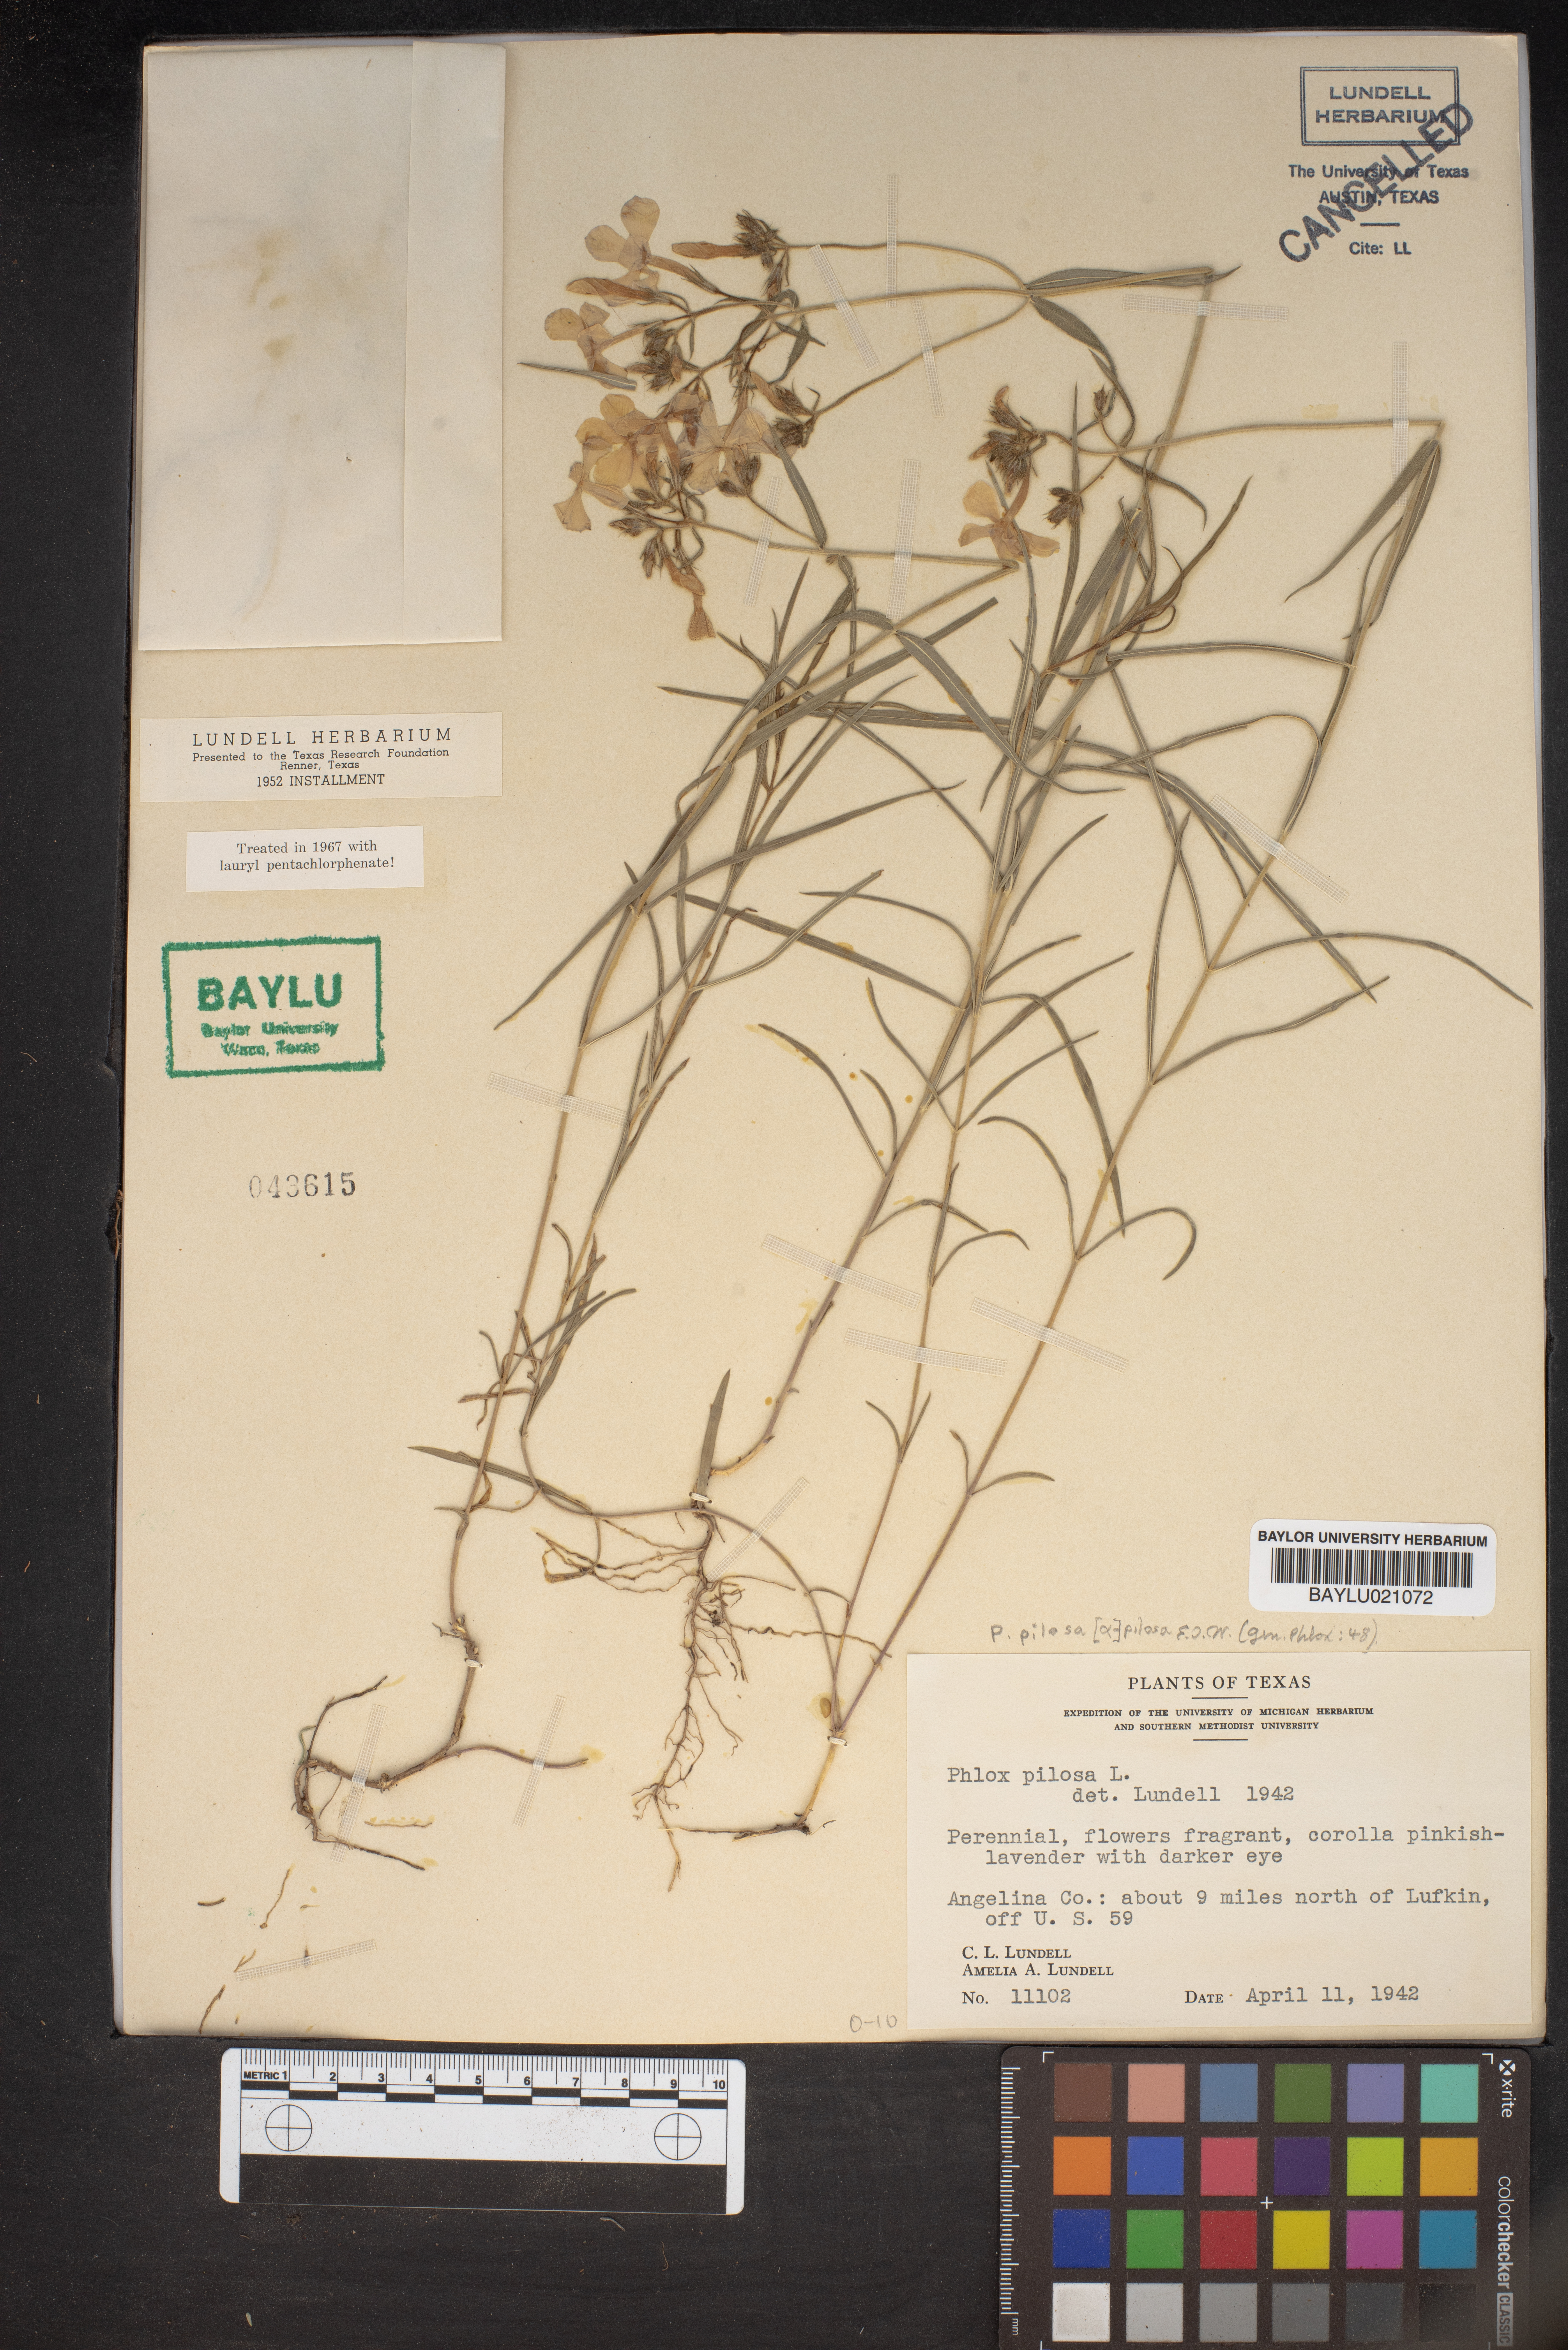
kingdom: Plantae
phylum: Tracheophyta
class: Magnoliopsida
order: Ericales
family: Polemoniaceae
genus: Phlox
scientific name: Phlox pilosa
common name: Prairie phlox
